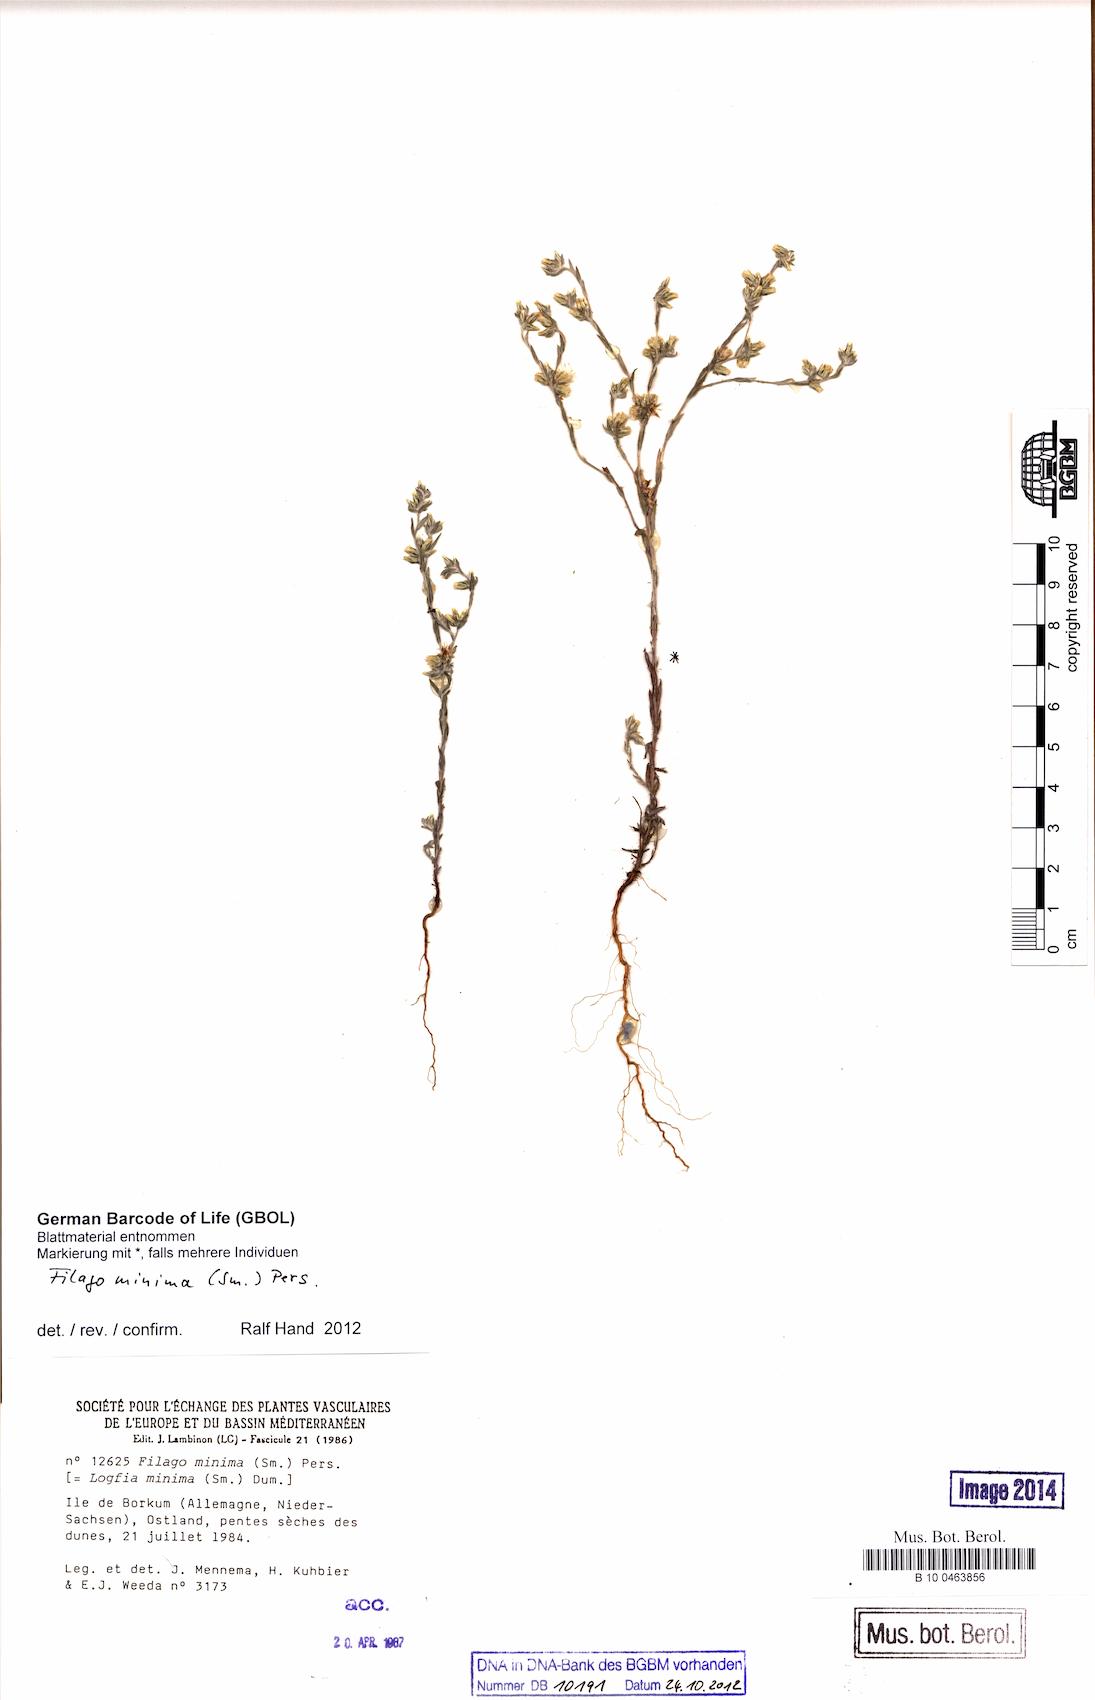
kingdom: Plantae
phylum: Tracheophyta
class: Magnoliopsida
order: Asterales
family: Asteraceae
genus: Logfia
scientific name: Logfia minima
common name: Little cottonrose
